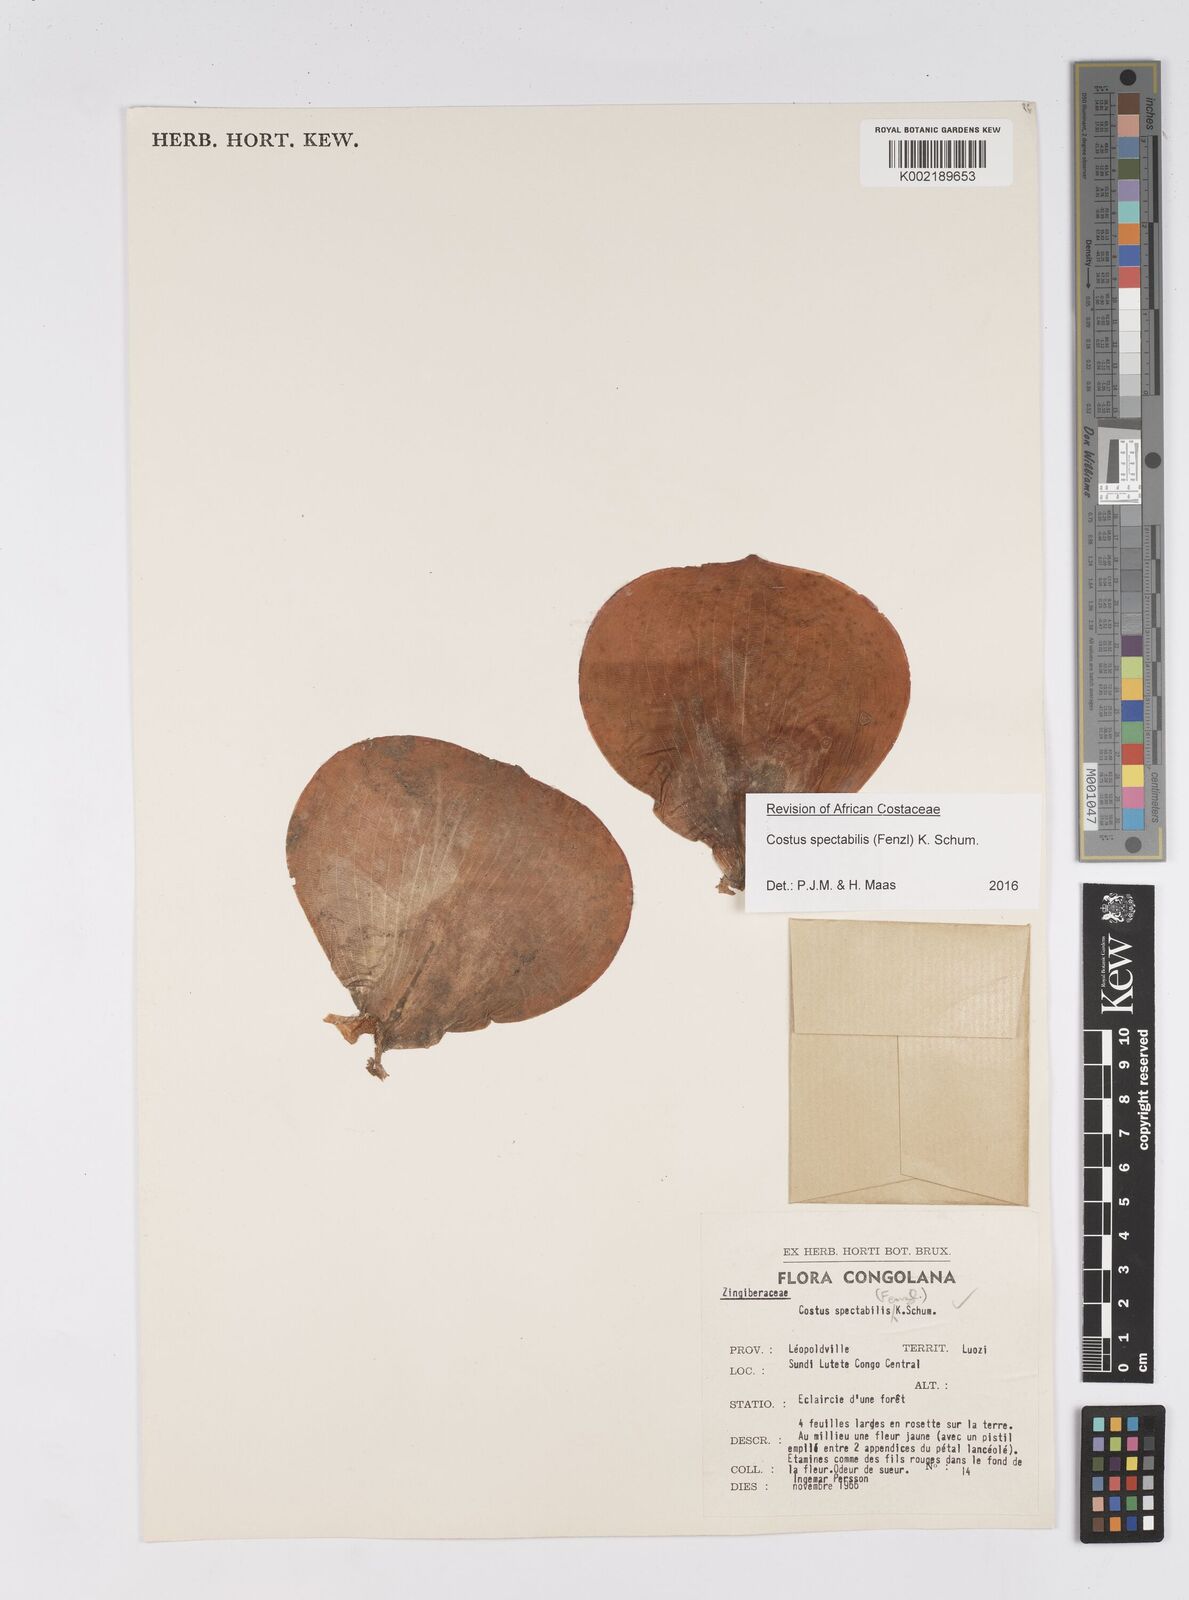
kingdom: Plantae
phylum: Tracheophyta
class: Liliopsida
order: Zingiberales
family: Costaceae
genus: Costus
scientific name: Costus spectabilis
